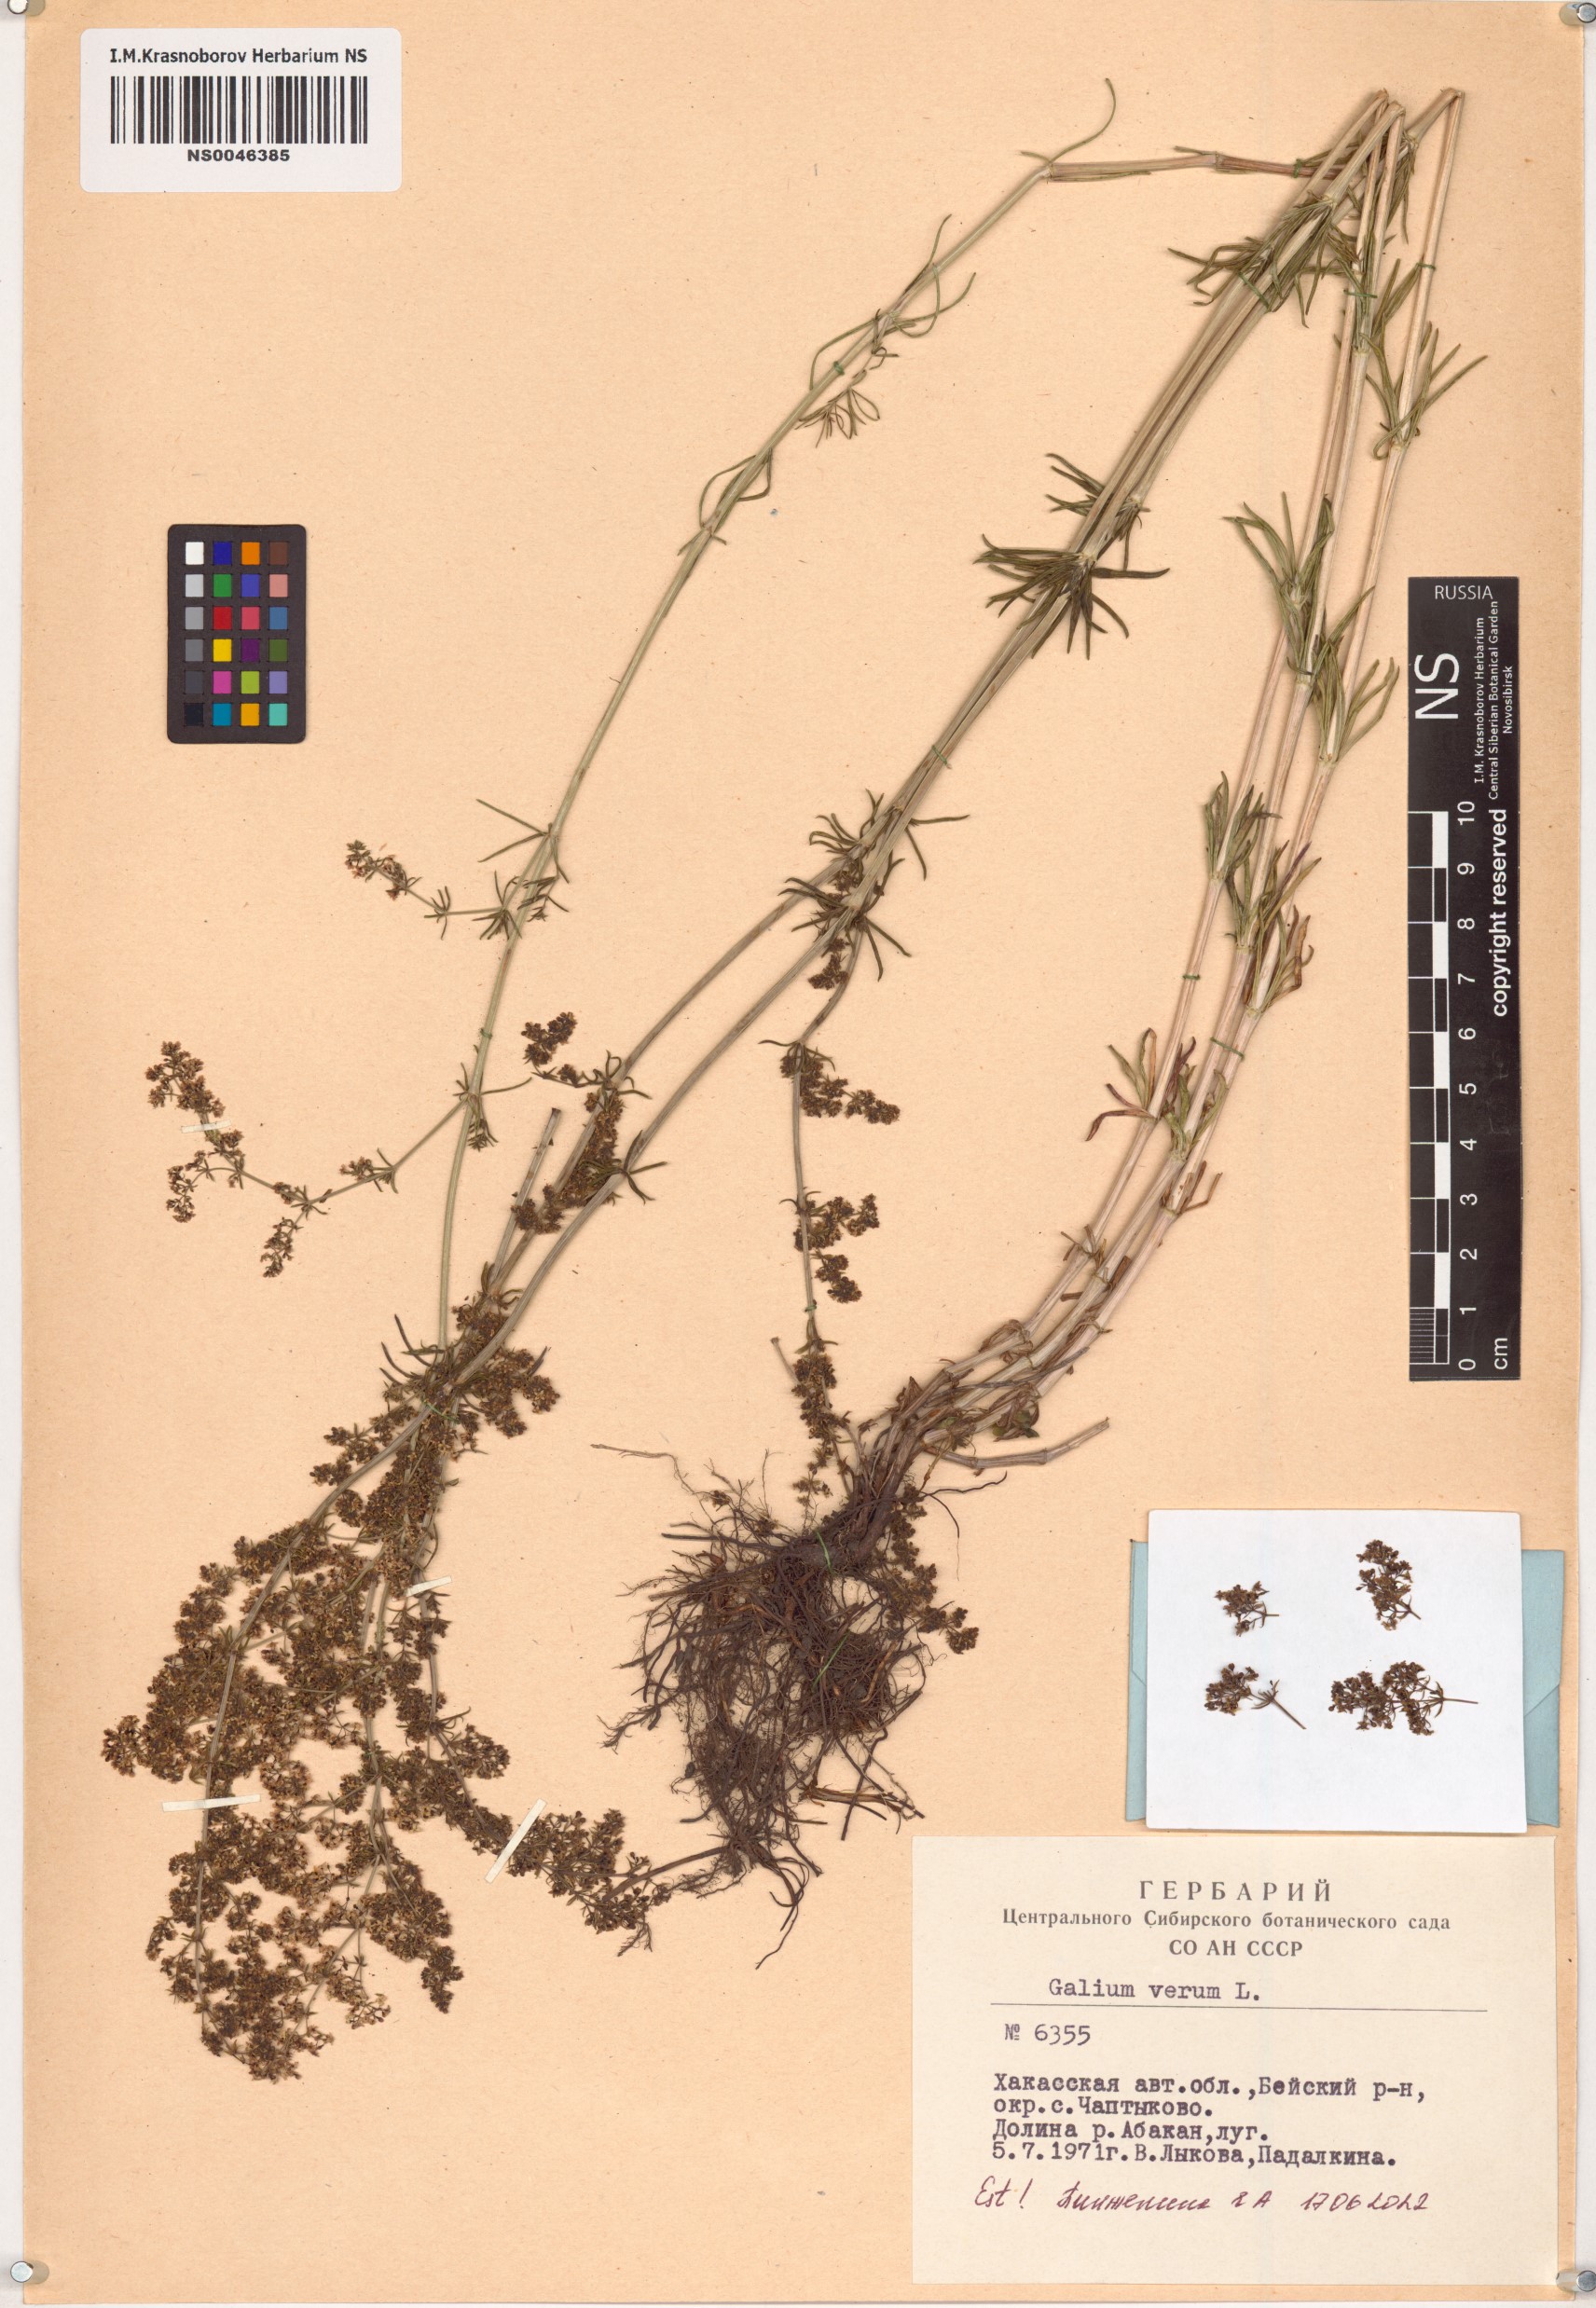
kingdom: Plantae
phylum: Tracheophyta
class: Magnoliopsida
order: Gentianales
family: Rubiaceae
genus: Galium
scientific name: Galium verum
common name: Lady's bedstraw
